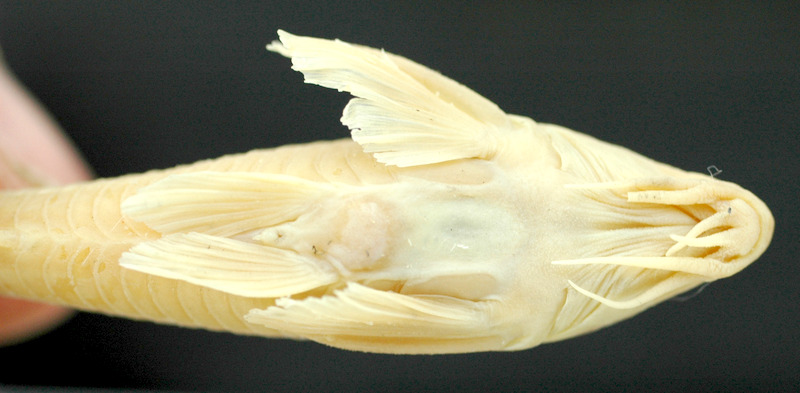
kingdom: Animalia
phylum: Chordata
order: Characiformes
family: Serrasalmidae
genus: Ossubtus
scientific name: Ossubtus xinguense
